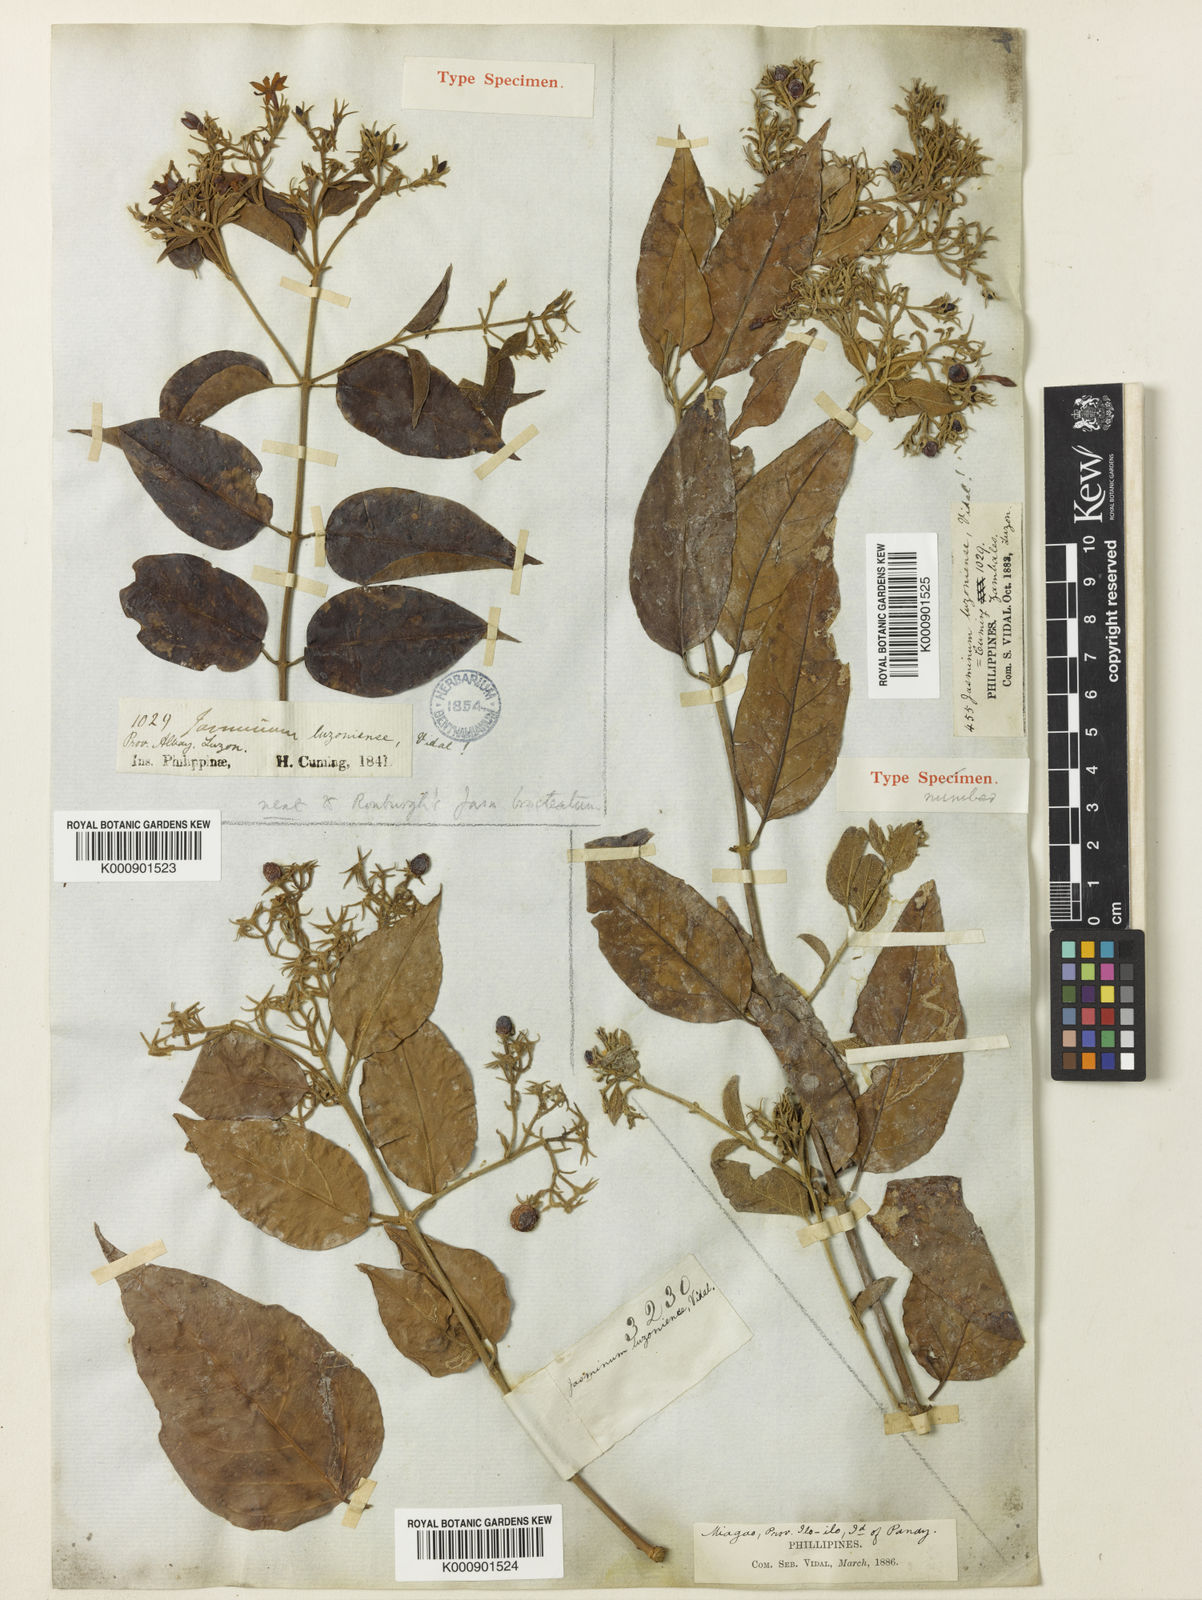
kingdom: Plantae
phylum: Tracheophyta
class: Magnoliopsida
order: Lamiales
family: Oleaceae
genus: Jasminum
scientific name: Jasminum populifolium
